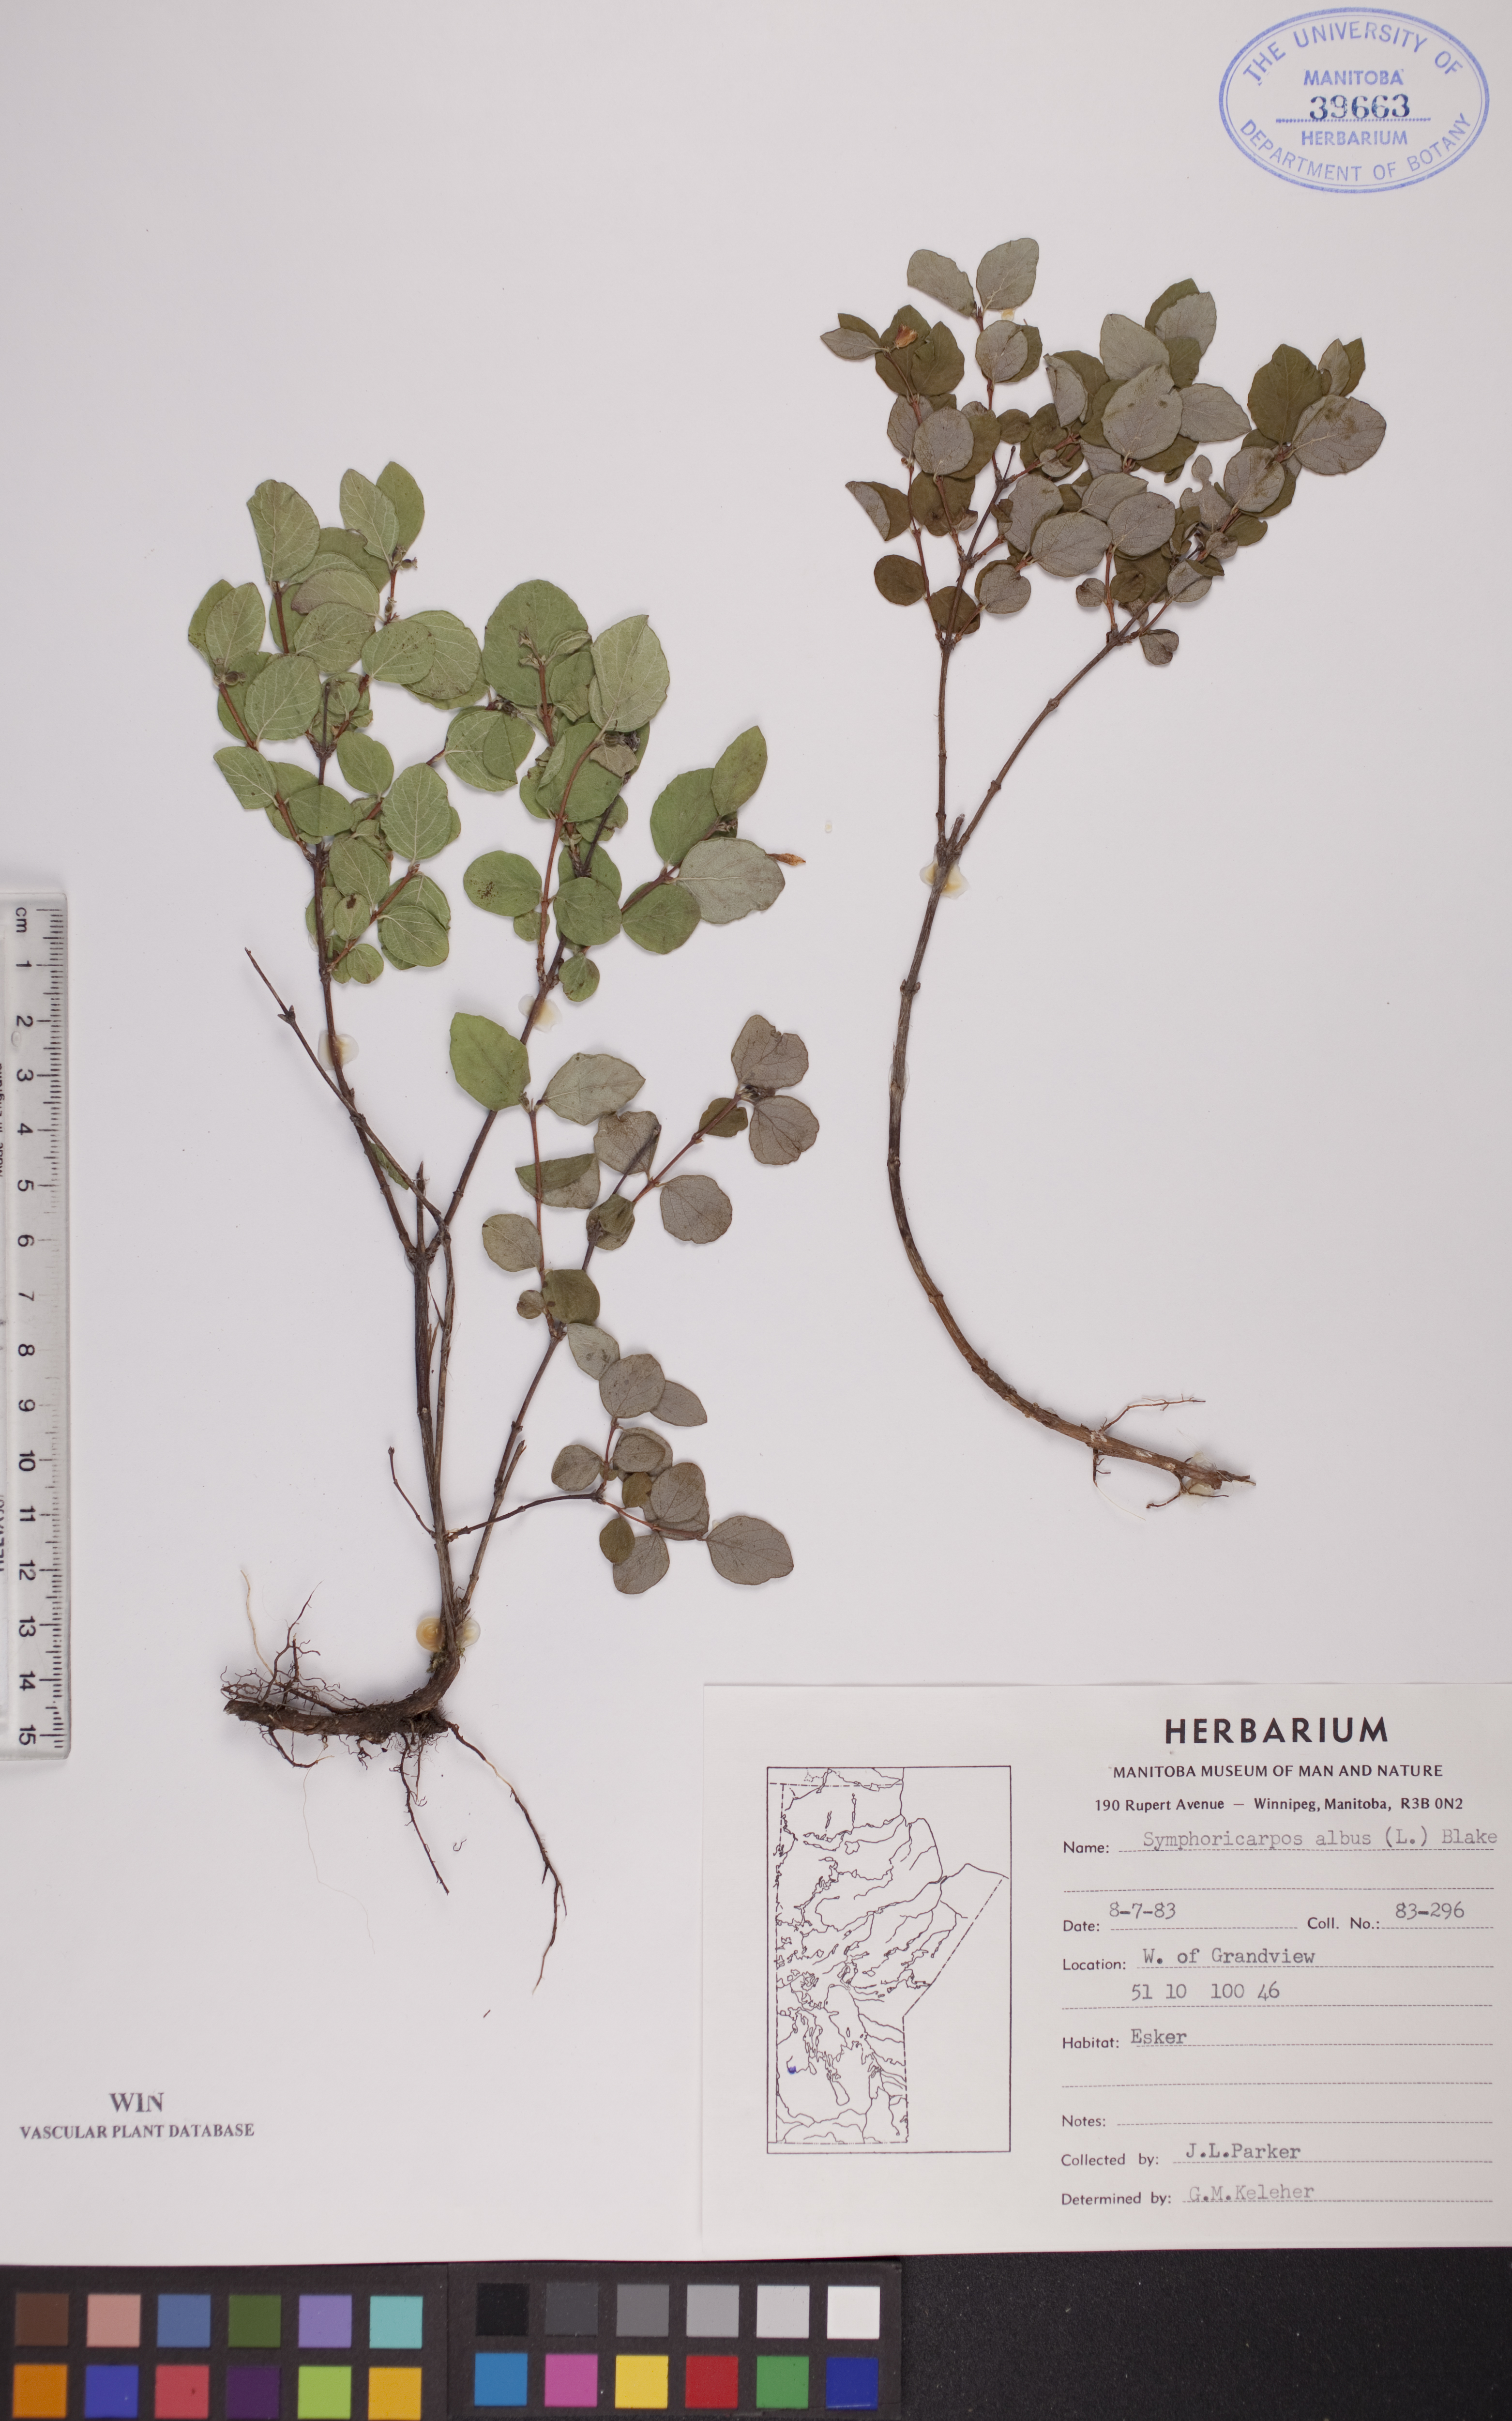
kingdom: Plantae
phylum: Tracheophyta
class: Magnoliopsida
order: Dipsacales
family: Caprifoliaceae
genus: Symphoricarpos
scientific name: Symphoricarpos albus
